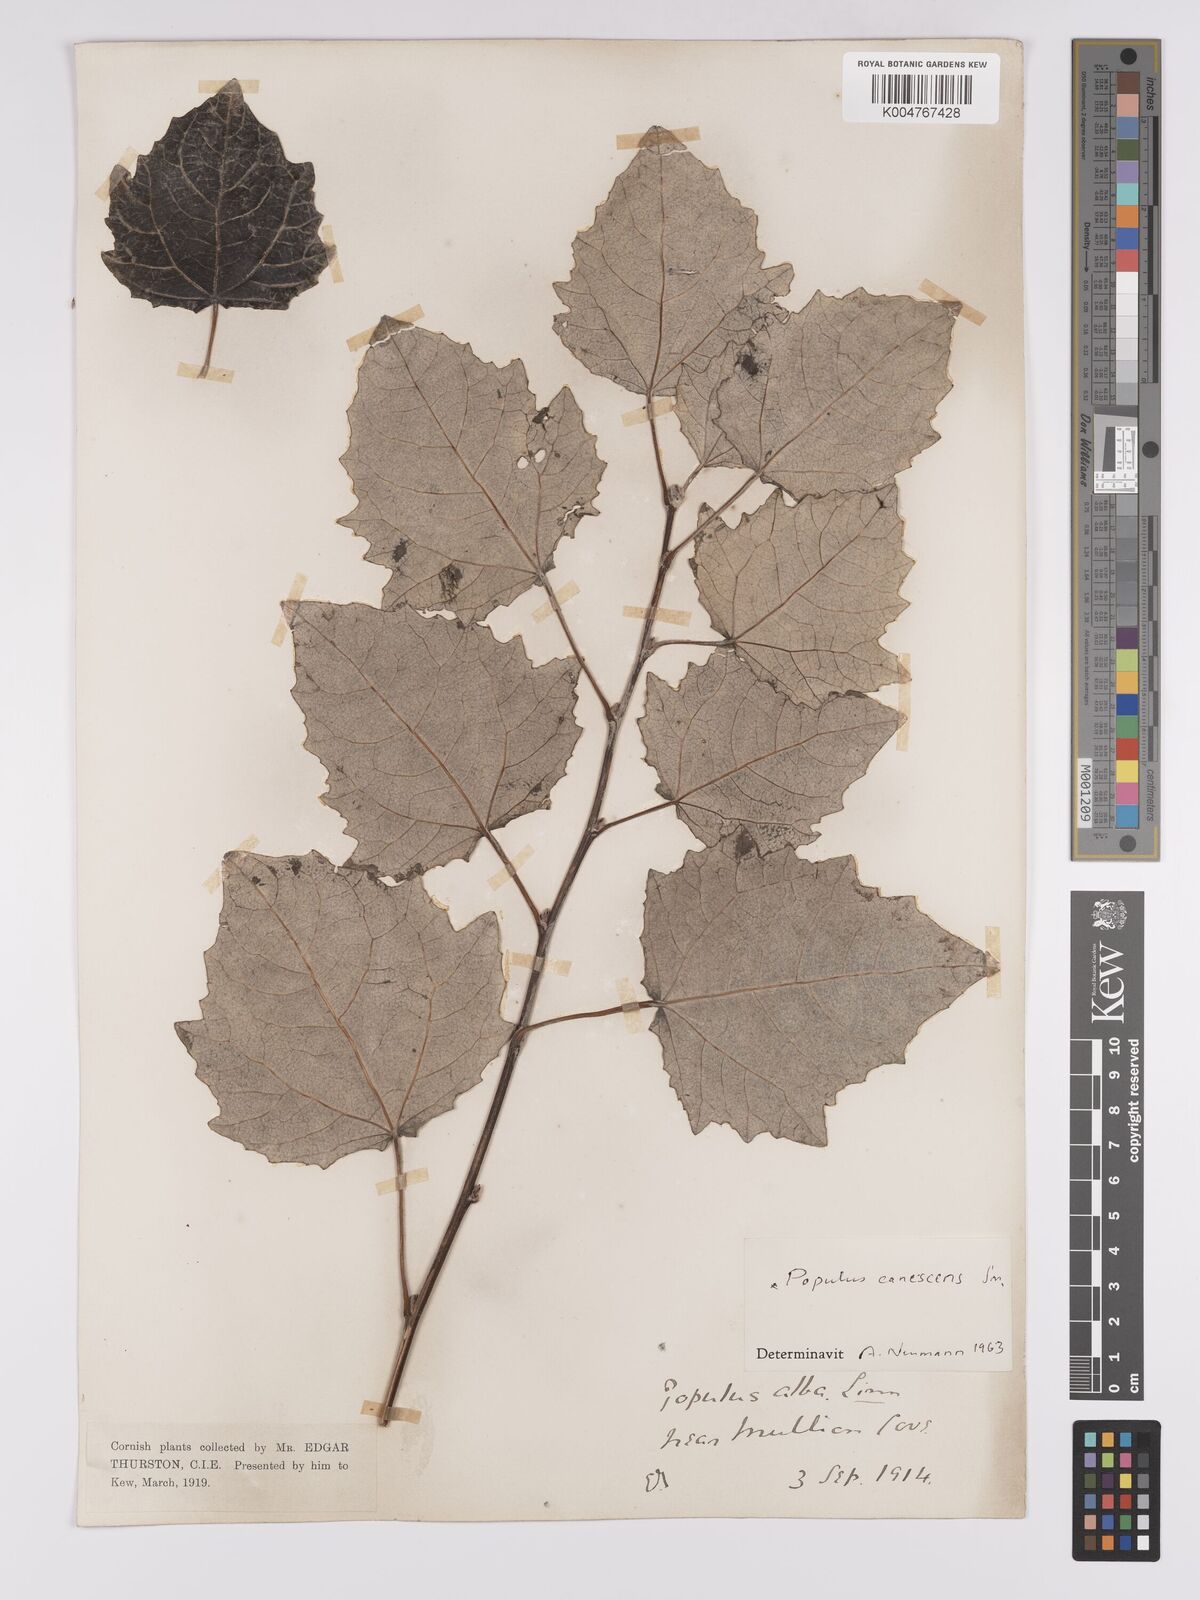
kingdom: Plantae
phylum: Tracheophyta
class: Magnoliopsida
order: Malpighiales
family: Salicaceae
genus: Populus
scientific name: Populus canescens
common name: Gray poplar
